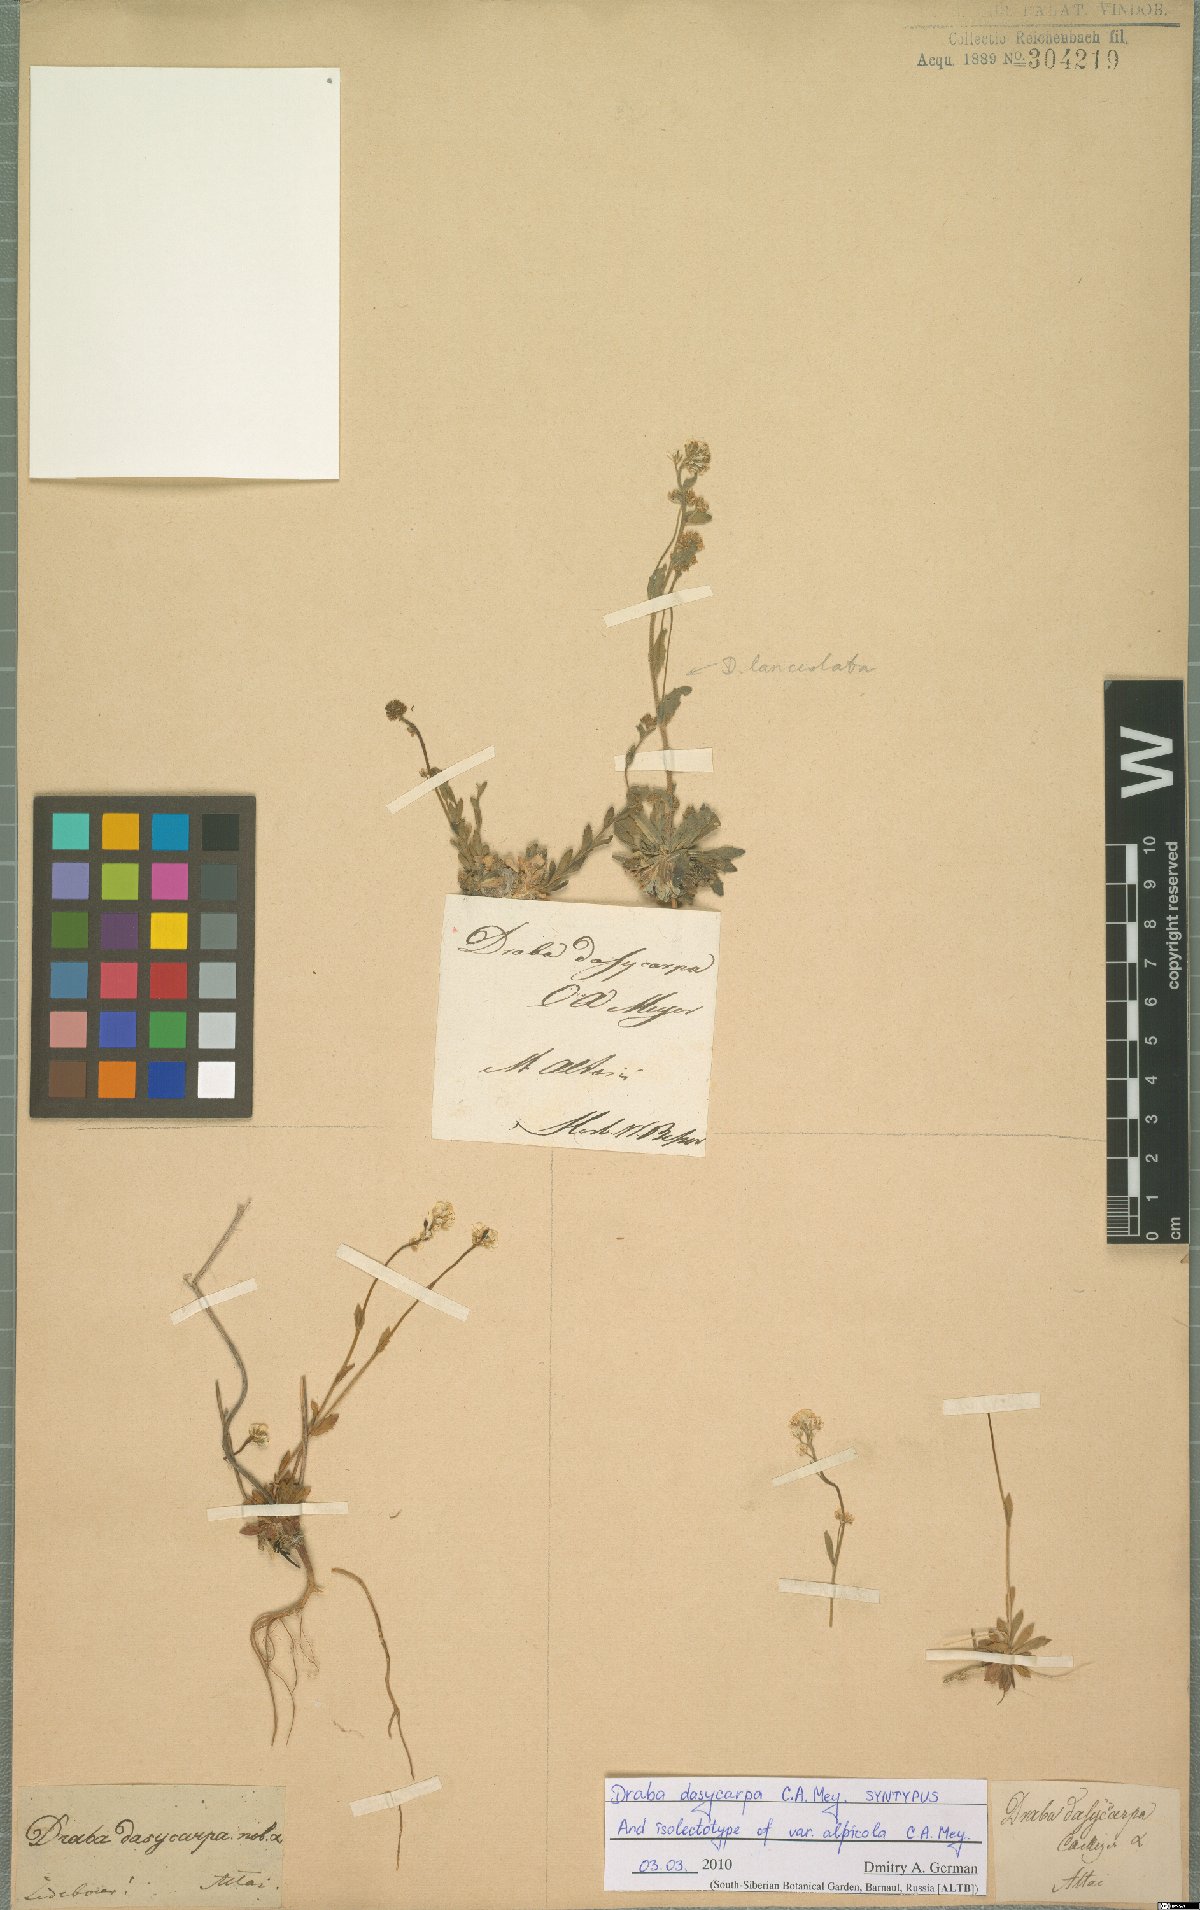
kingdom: Plantae
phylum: Tracheophyta
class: Magnoliopsida
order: Brassicales
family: Brassicaceae
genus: Draba
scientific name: Draba subamplexicaulis
